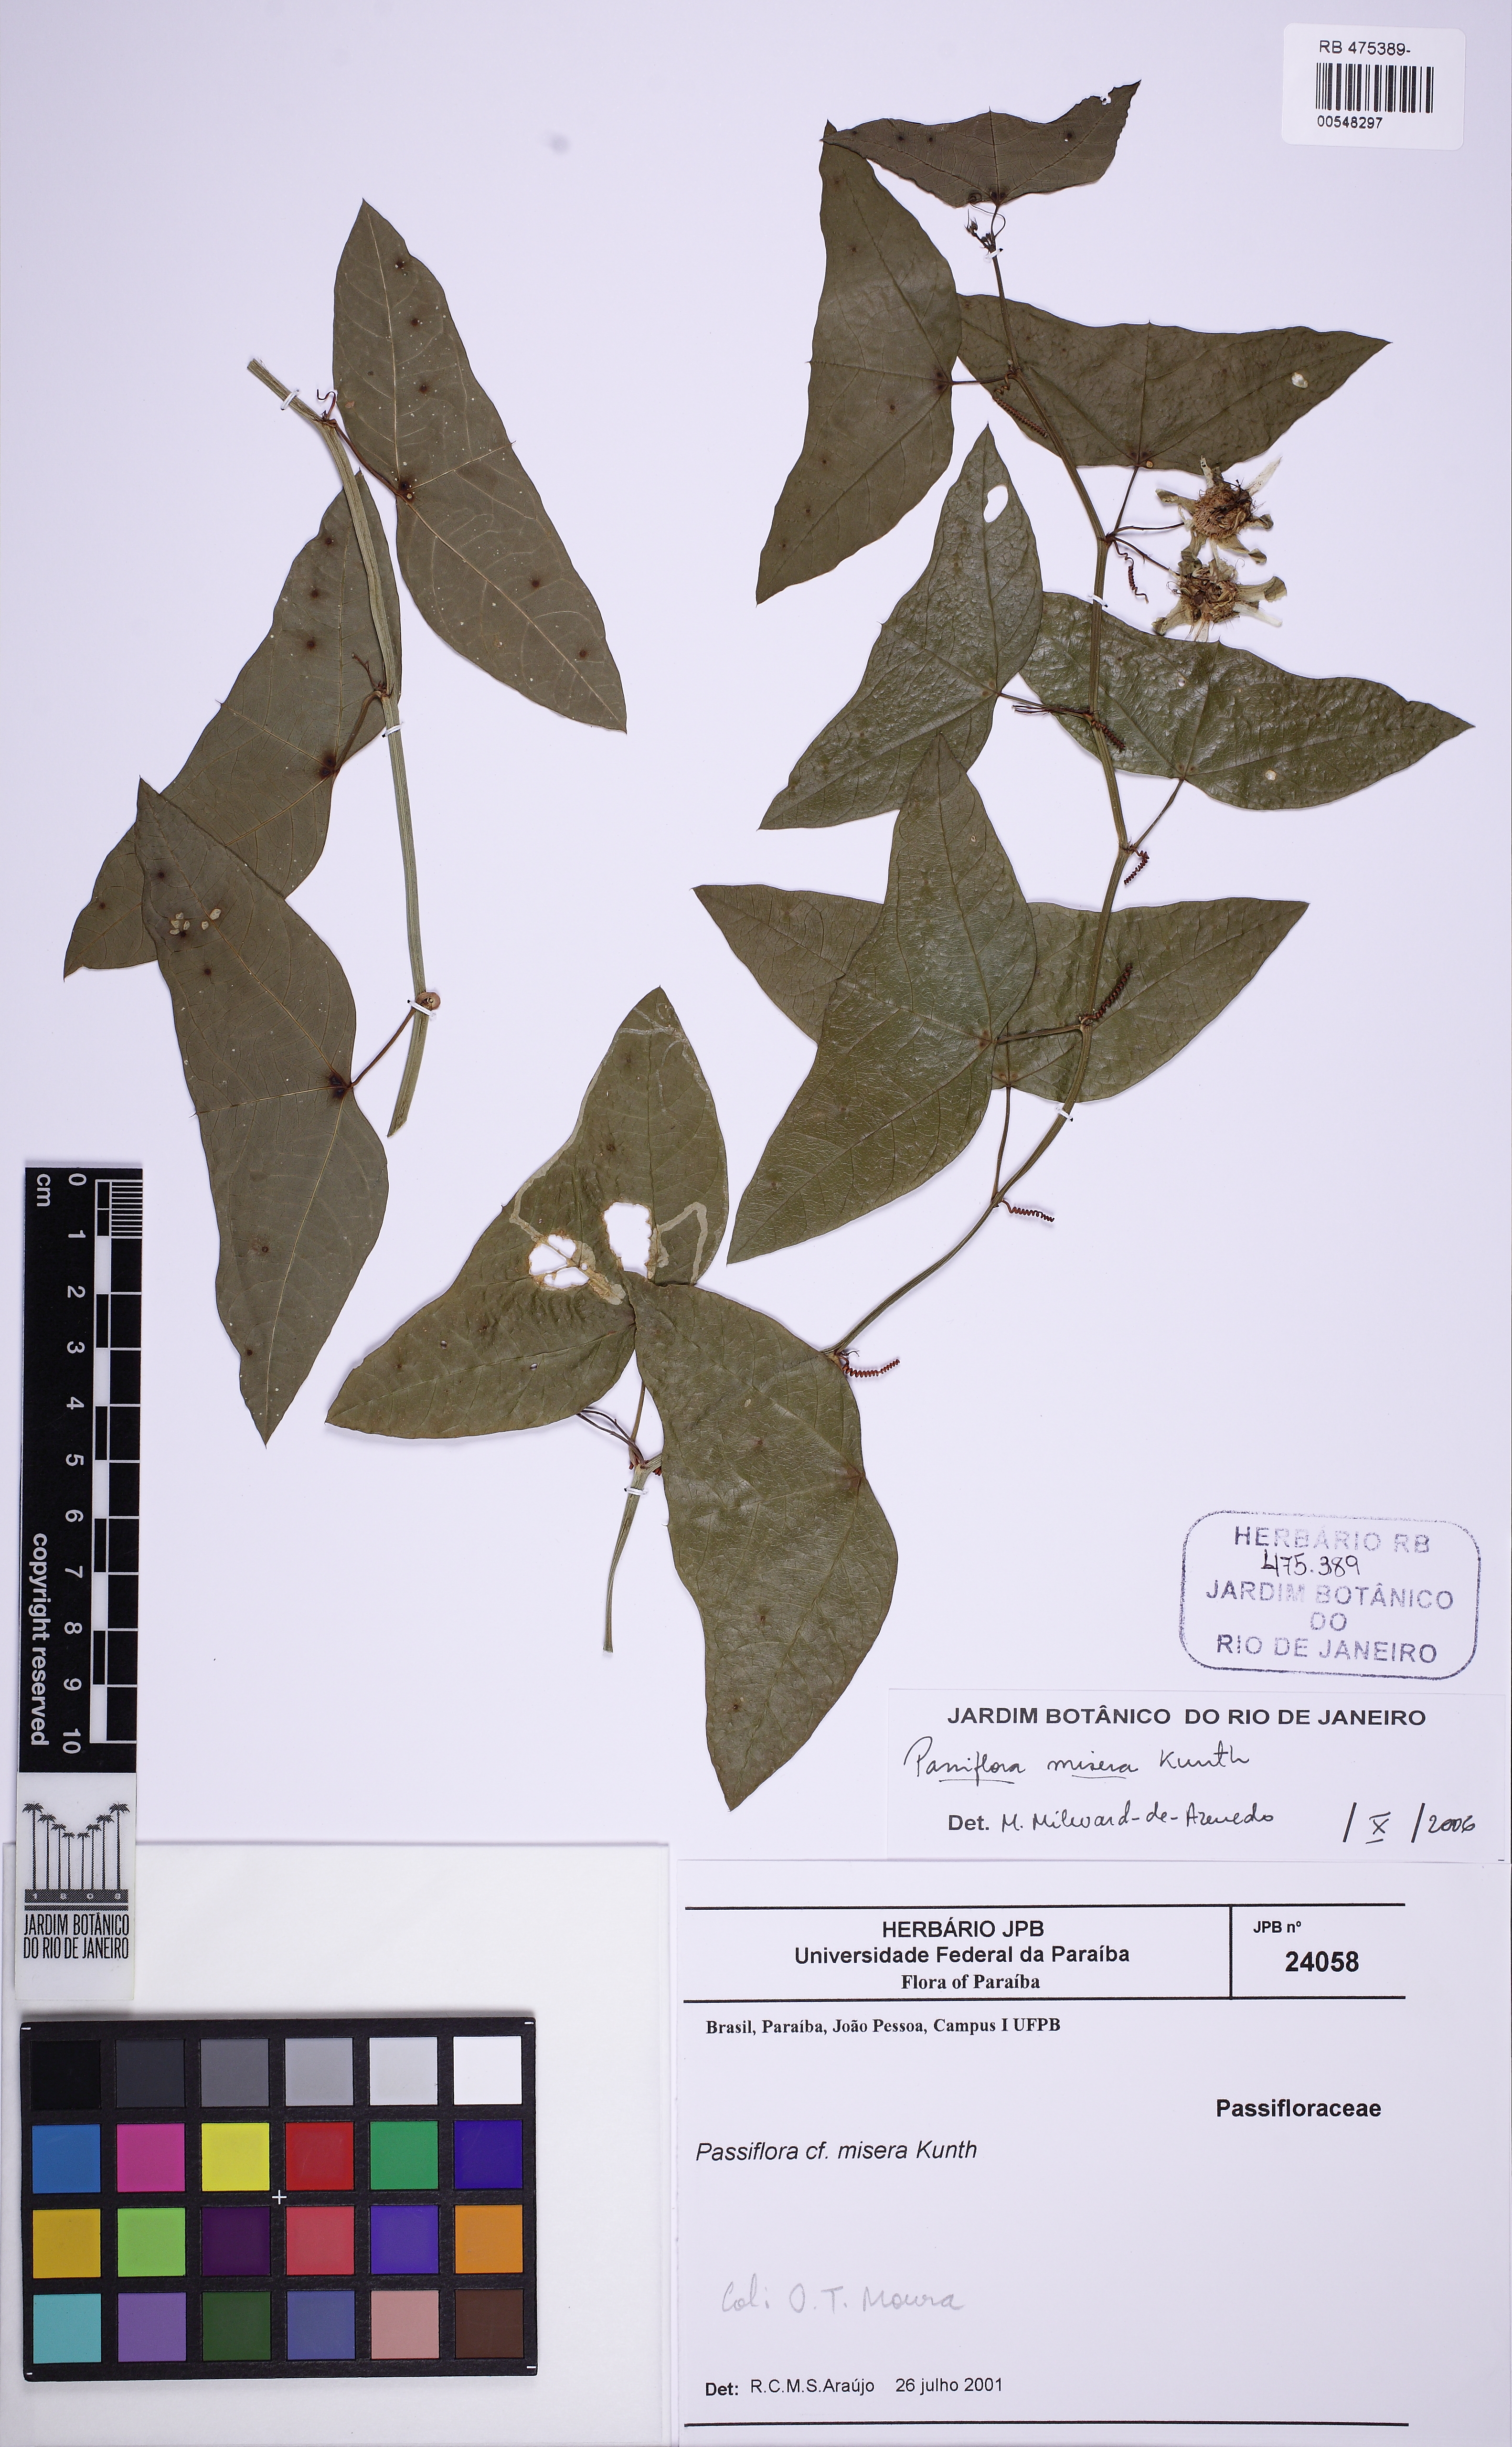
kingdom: Plantae
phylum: Tracheophyta
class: Magnoliopsida
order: Malpighiales
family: Passifloraceae
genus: Passiflora
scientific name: Passiflora misera
